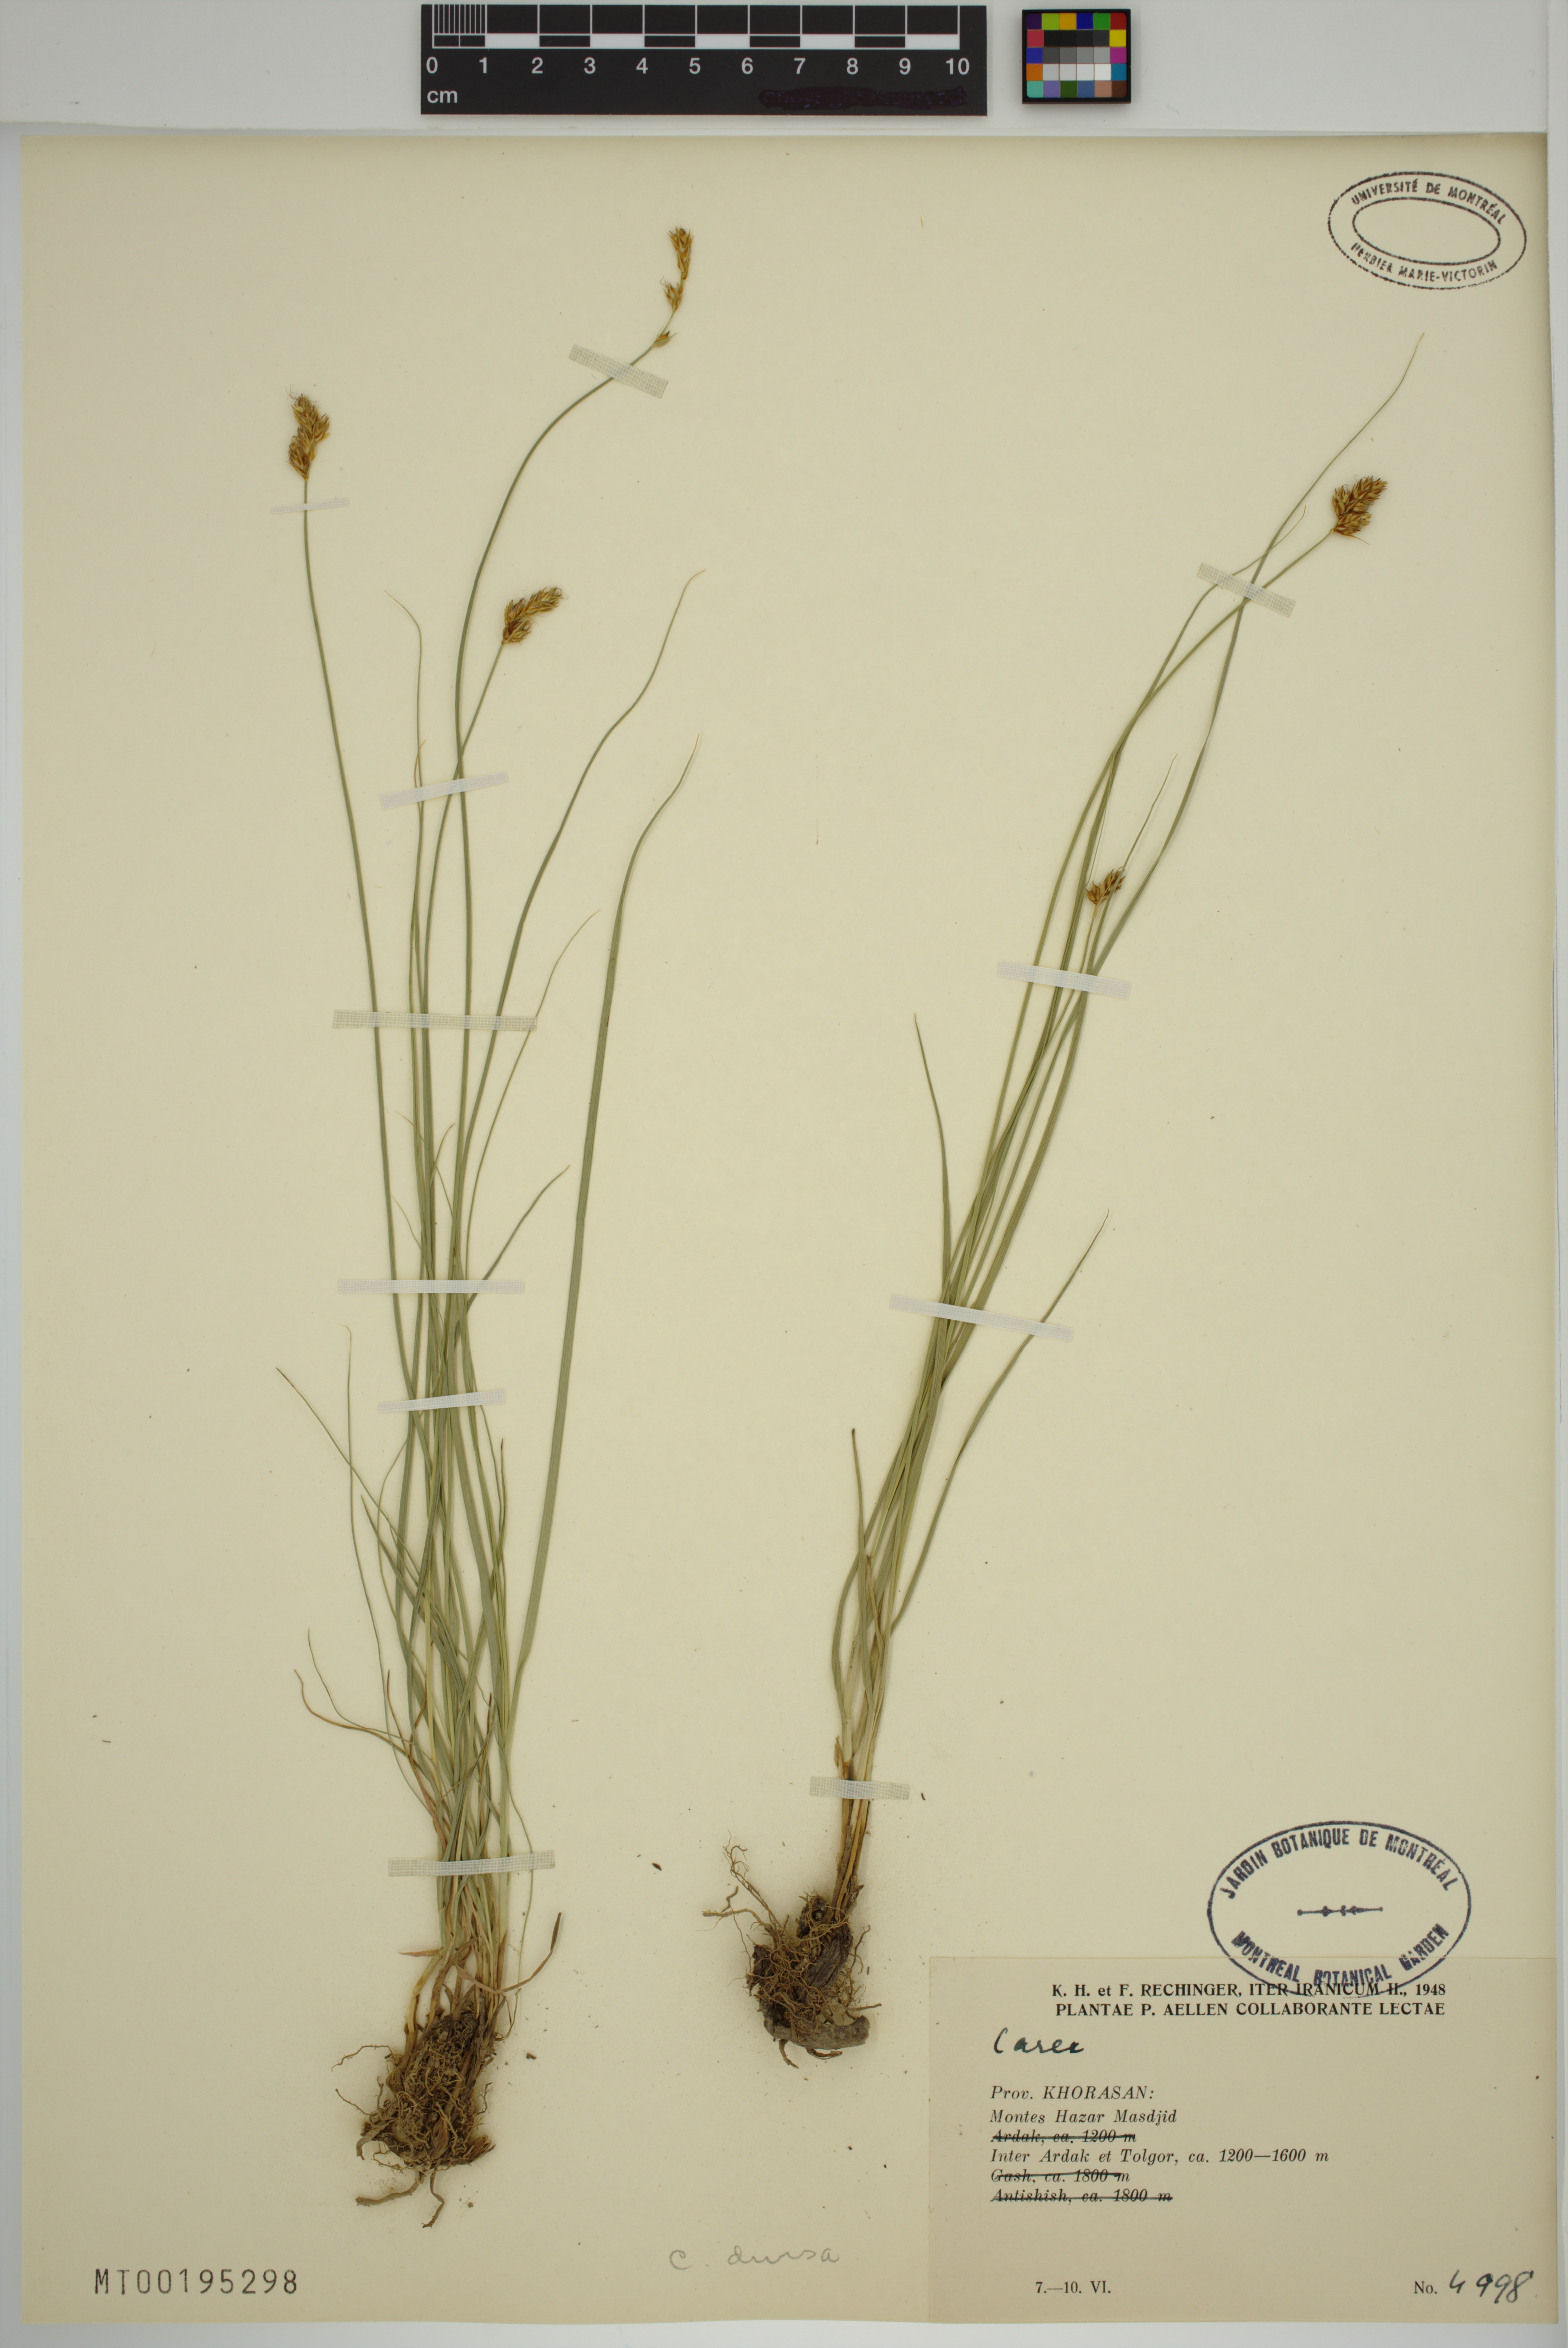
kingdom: Plantae
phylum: Tracheophyta
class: Liliopsida
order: Poales
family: Cyperaceae
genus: Carex
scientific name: Carex divisa
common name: Divided sedge
